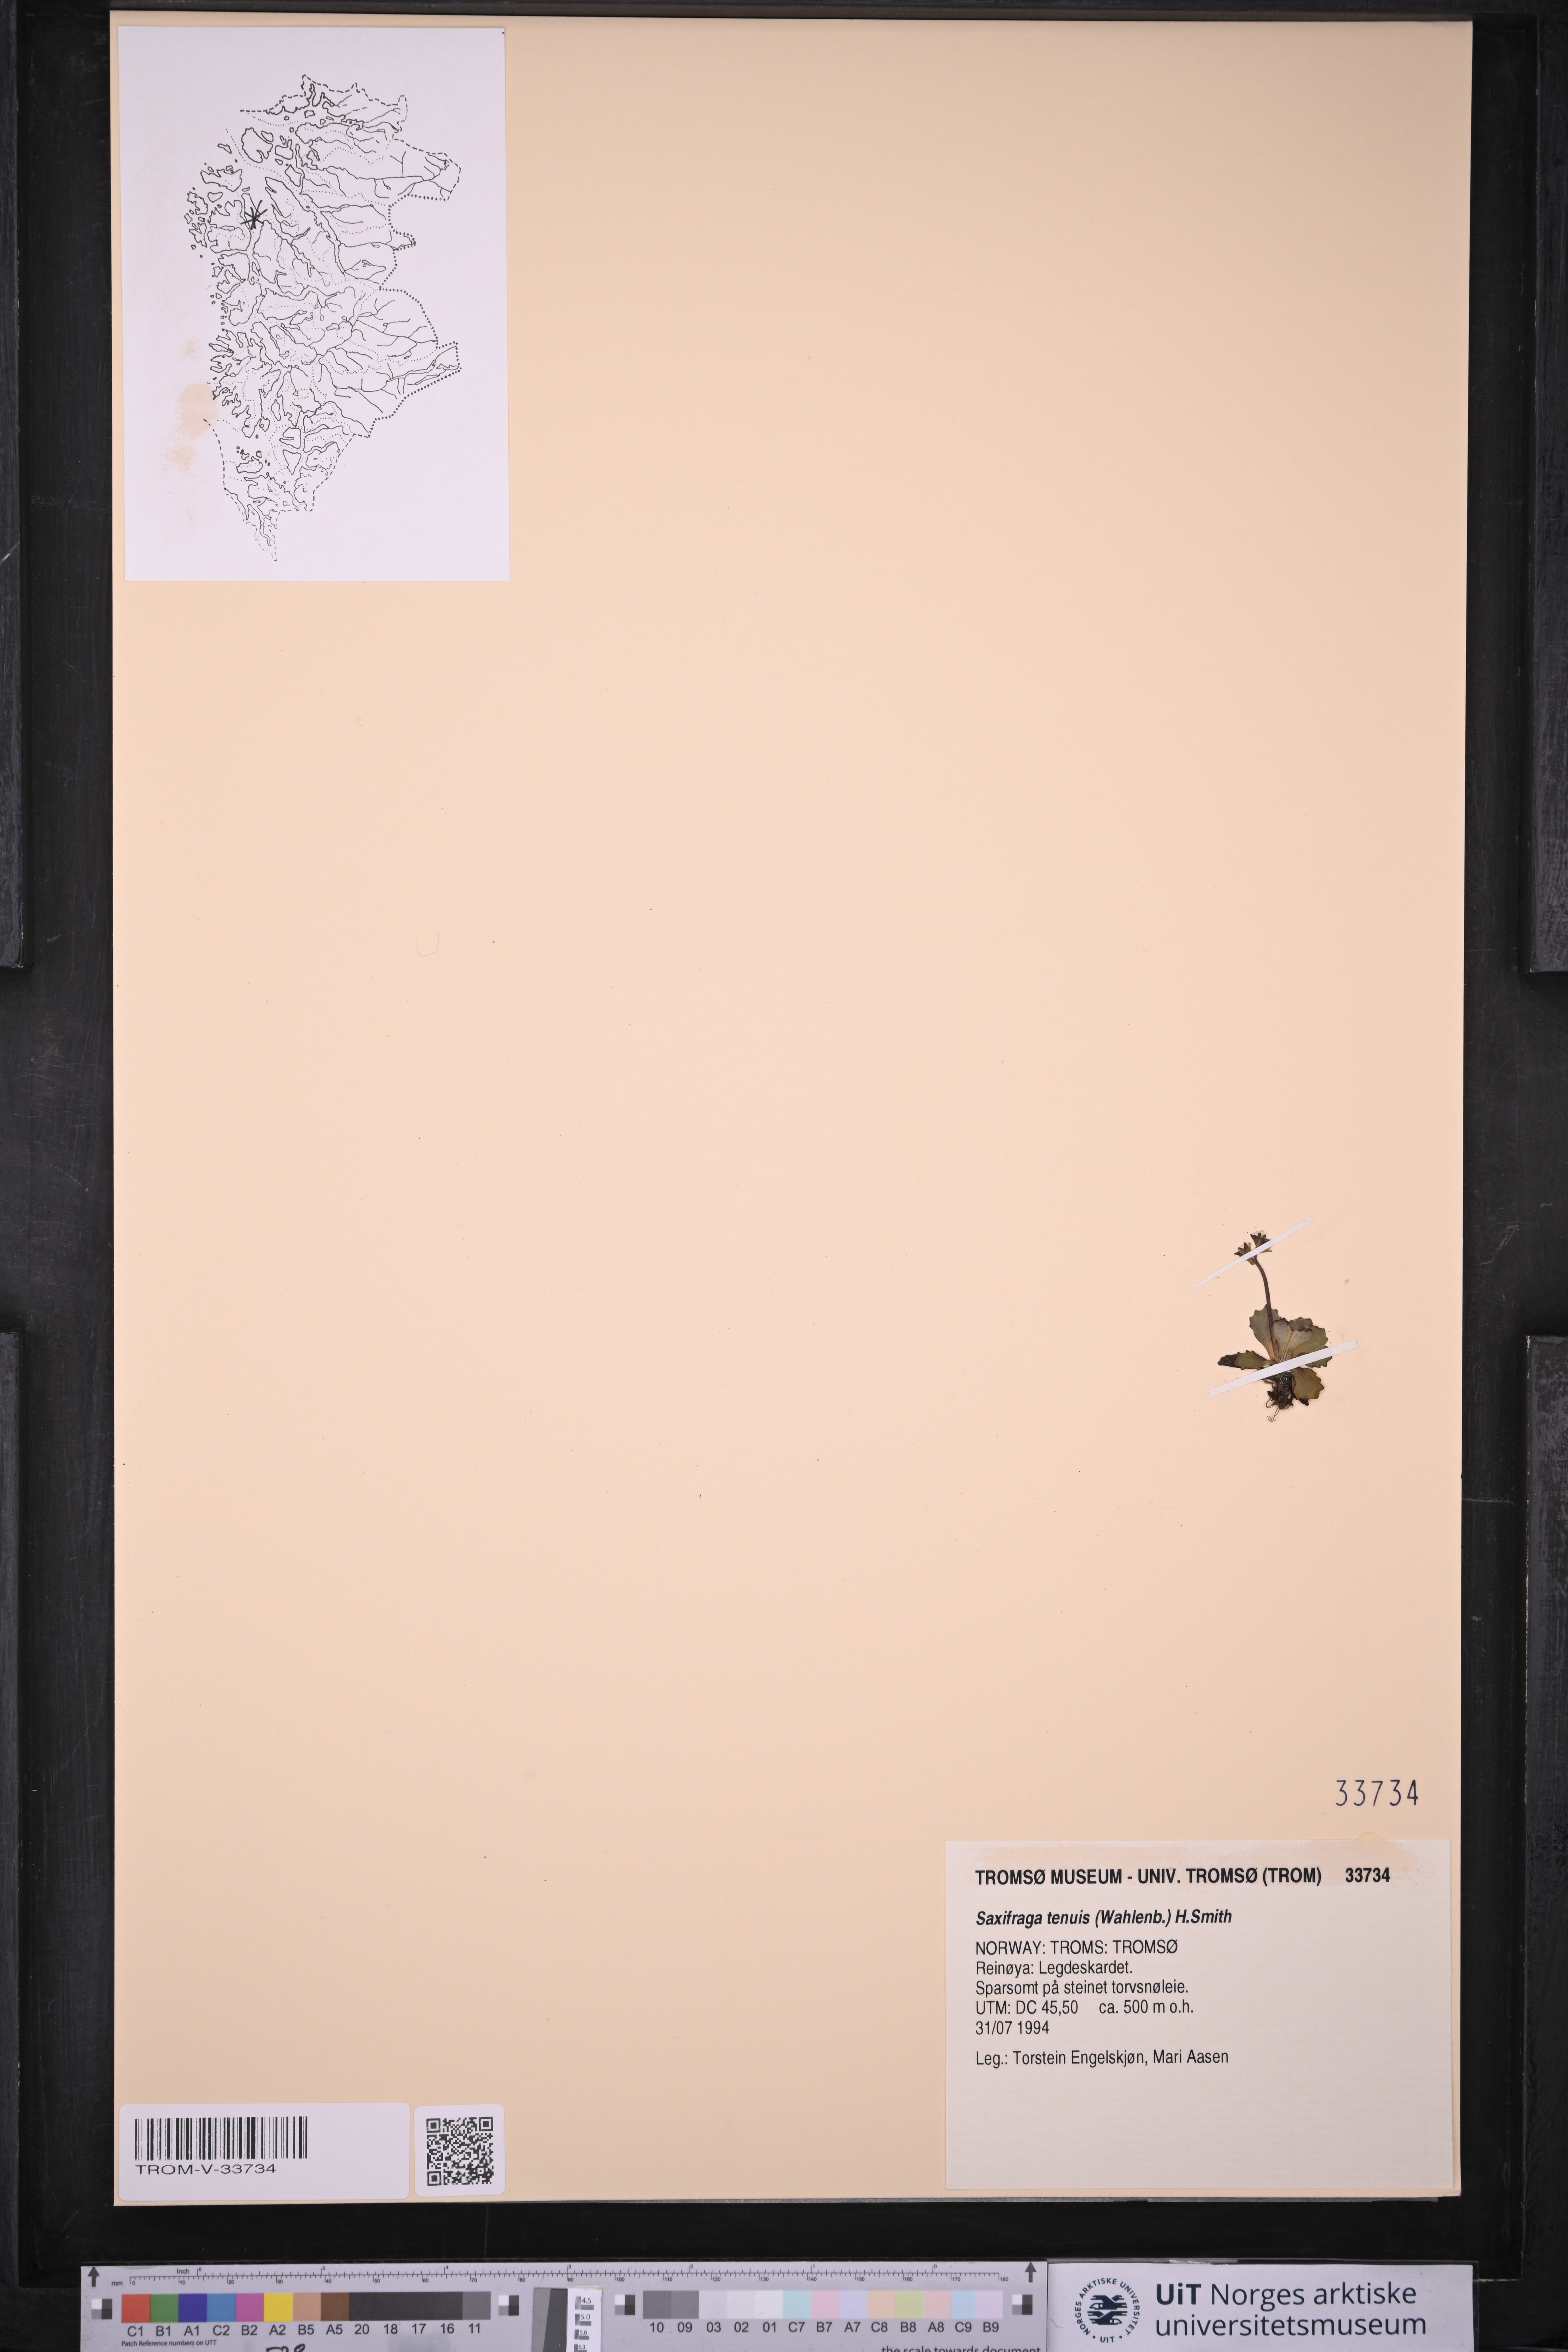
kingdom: Plantae
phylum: Tracheophyta
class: Magnoliopsida
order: Saxifragales
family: Saxifragaceae
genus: Micranthes
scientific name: Micranthes tenuis
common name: Ottertail pass saxifrage
